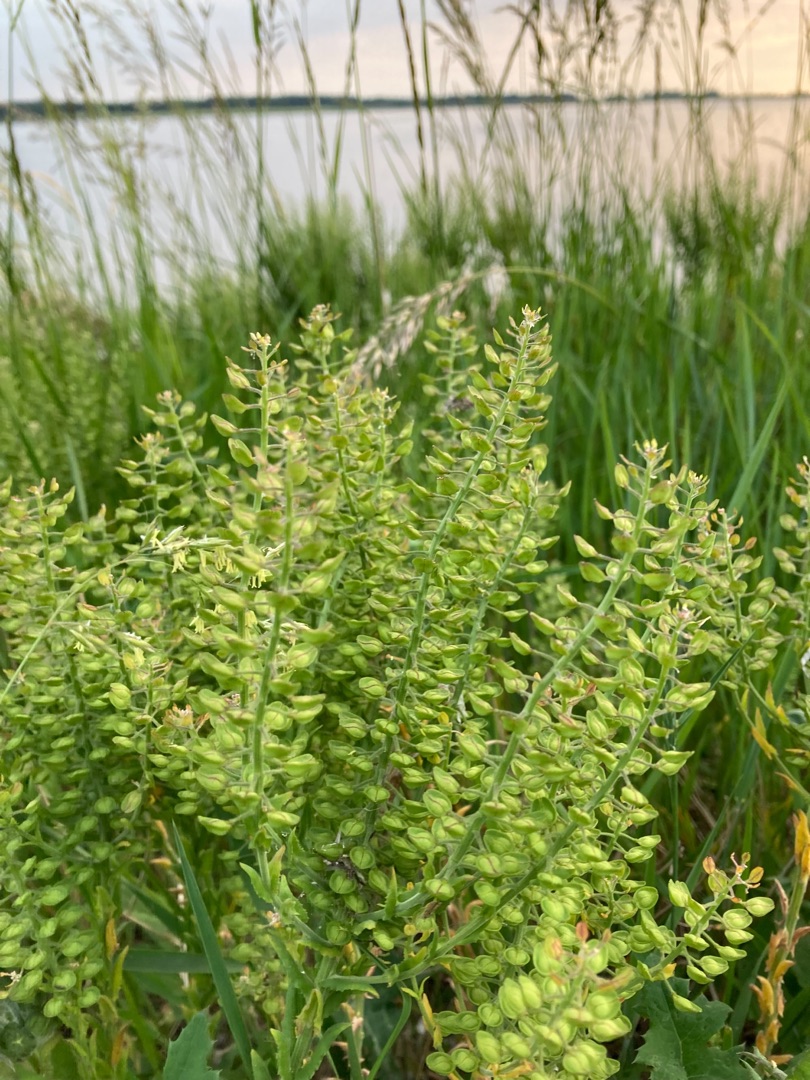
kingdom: Plantae
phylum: Tracheophyta
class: Magnoliopsida
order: Brassicales
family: Brassicaceae
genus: Lepidium
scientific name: Lepidium campestre
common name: Salomons lysestage
